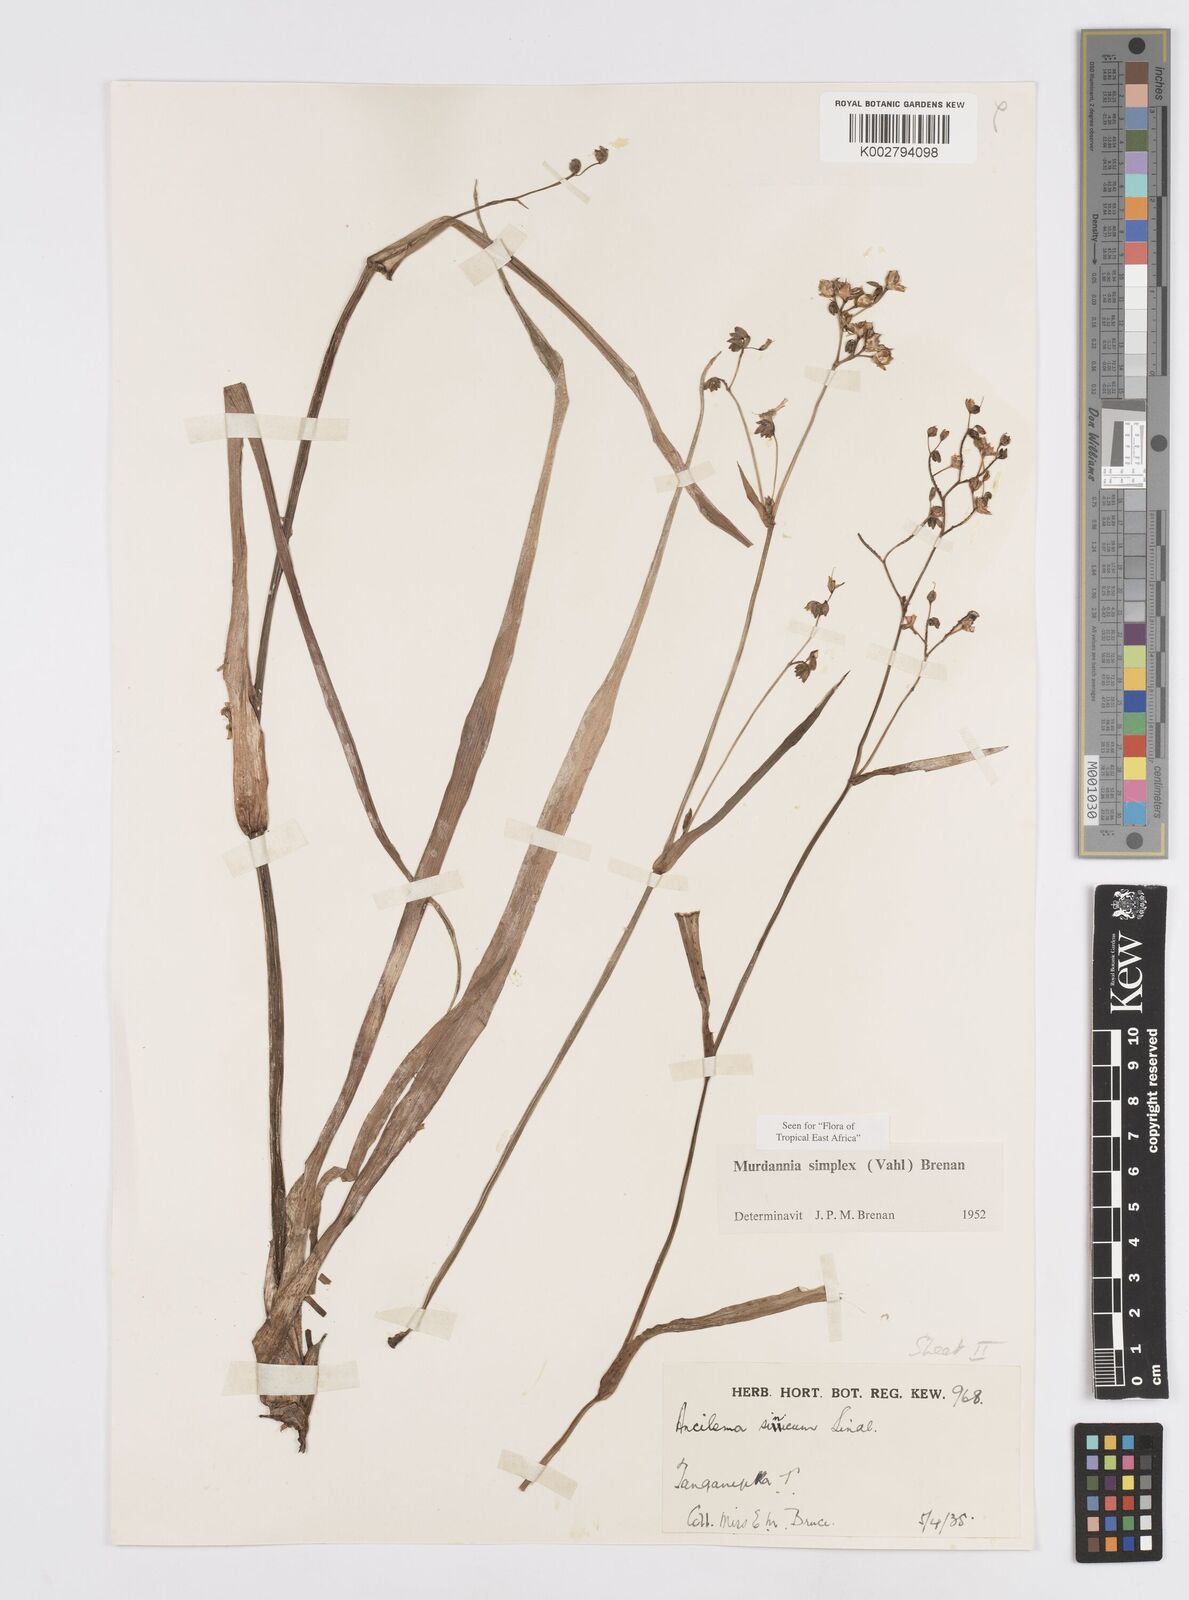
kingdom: Plantae
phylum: Tracheophyta
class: Liliopsida
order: Commelinales
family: Commelinaceae
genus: Murdannia
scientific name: Murdannia simplex
